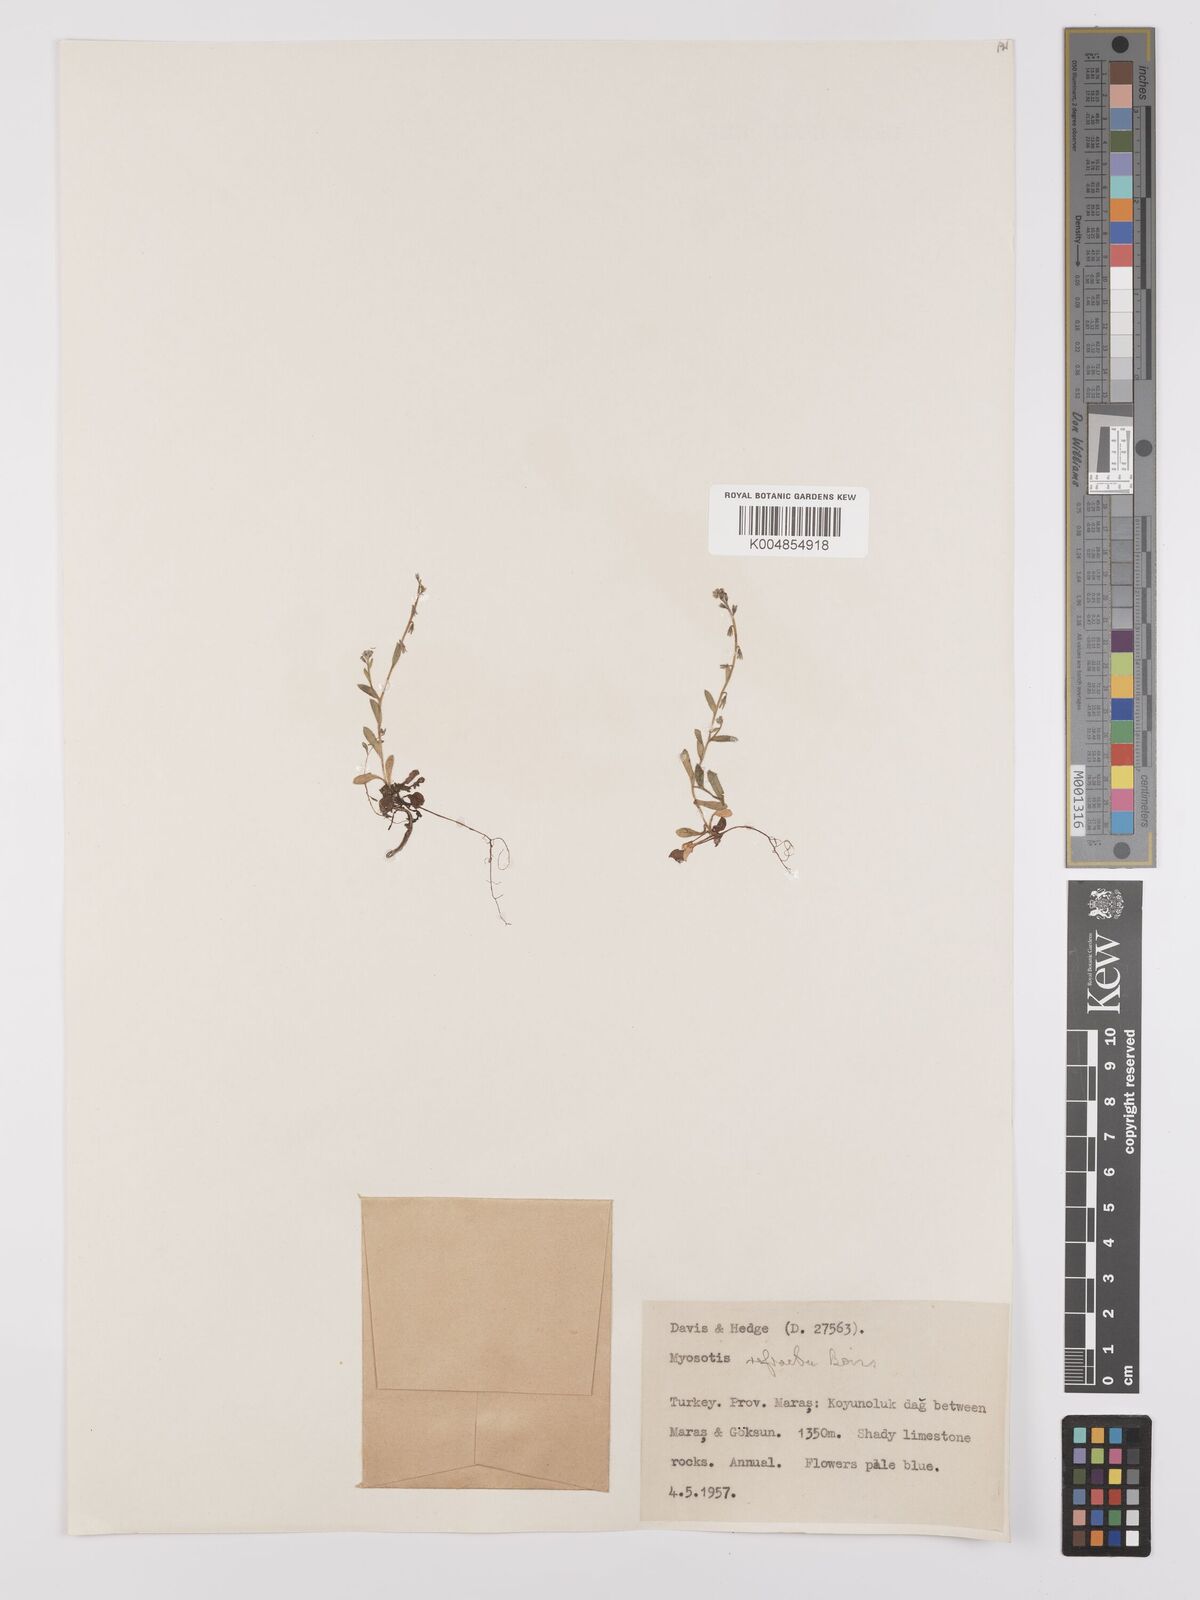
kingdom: Plantae
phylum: Tracheophyta
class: Magnoliopsida
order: Boraginales
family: Boraginaceae
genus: Myosotis
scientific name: Myosotis
